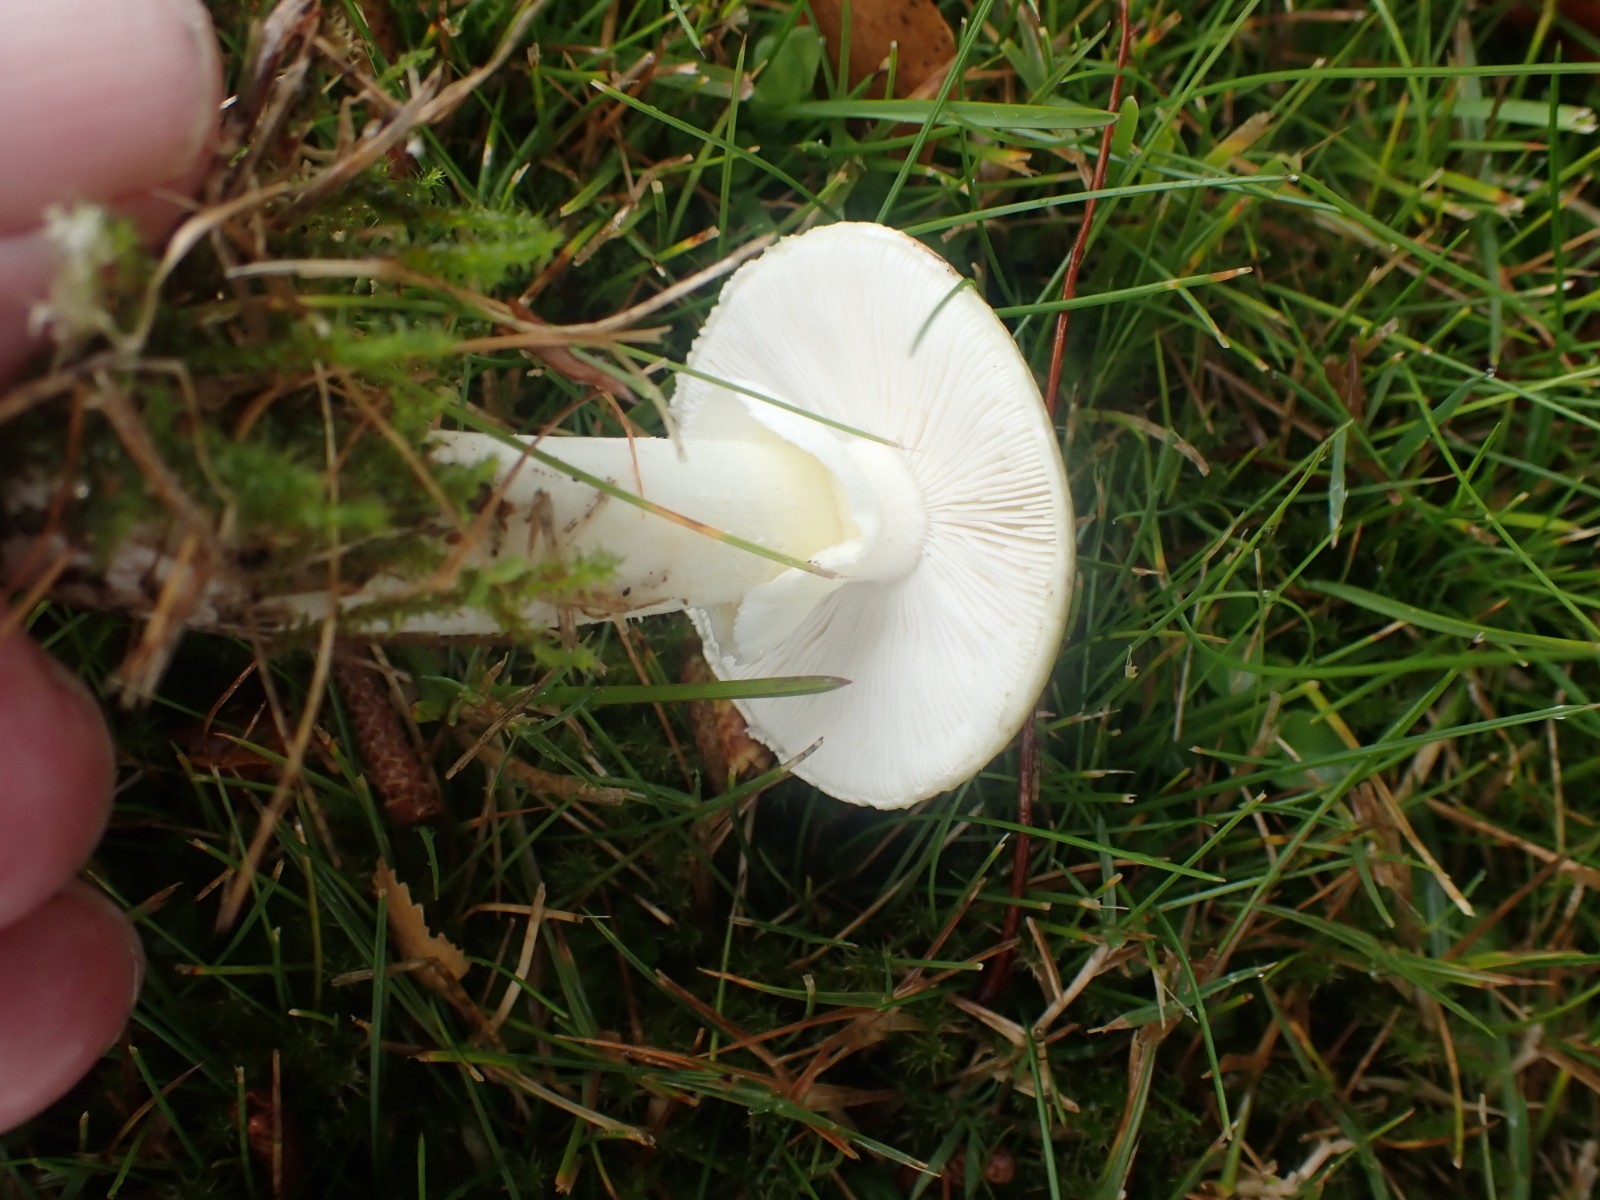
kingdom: Fungi
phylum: Basidiomycota
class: Agaricomycetes
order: Agaricales
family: Amanitaceae
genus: Amanita
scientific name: Amanita phalloides
